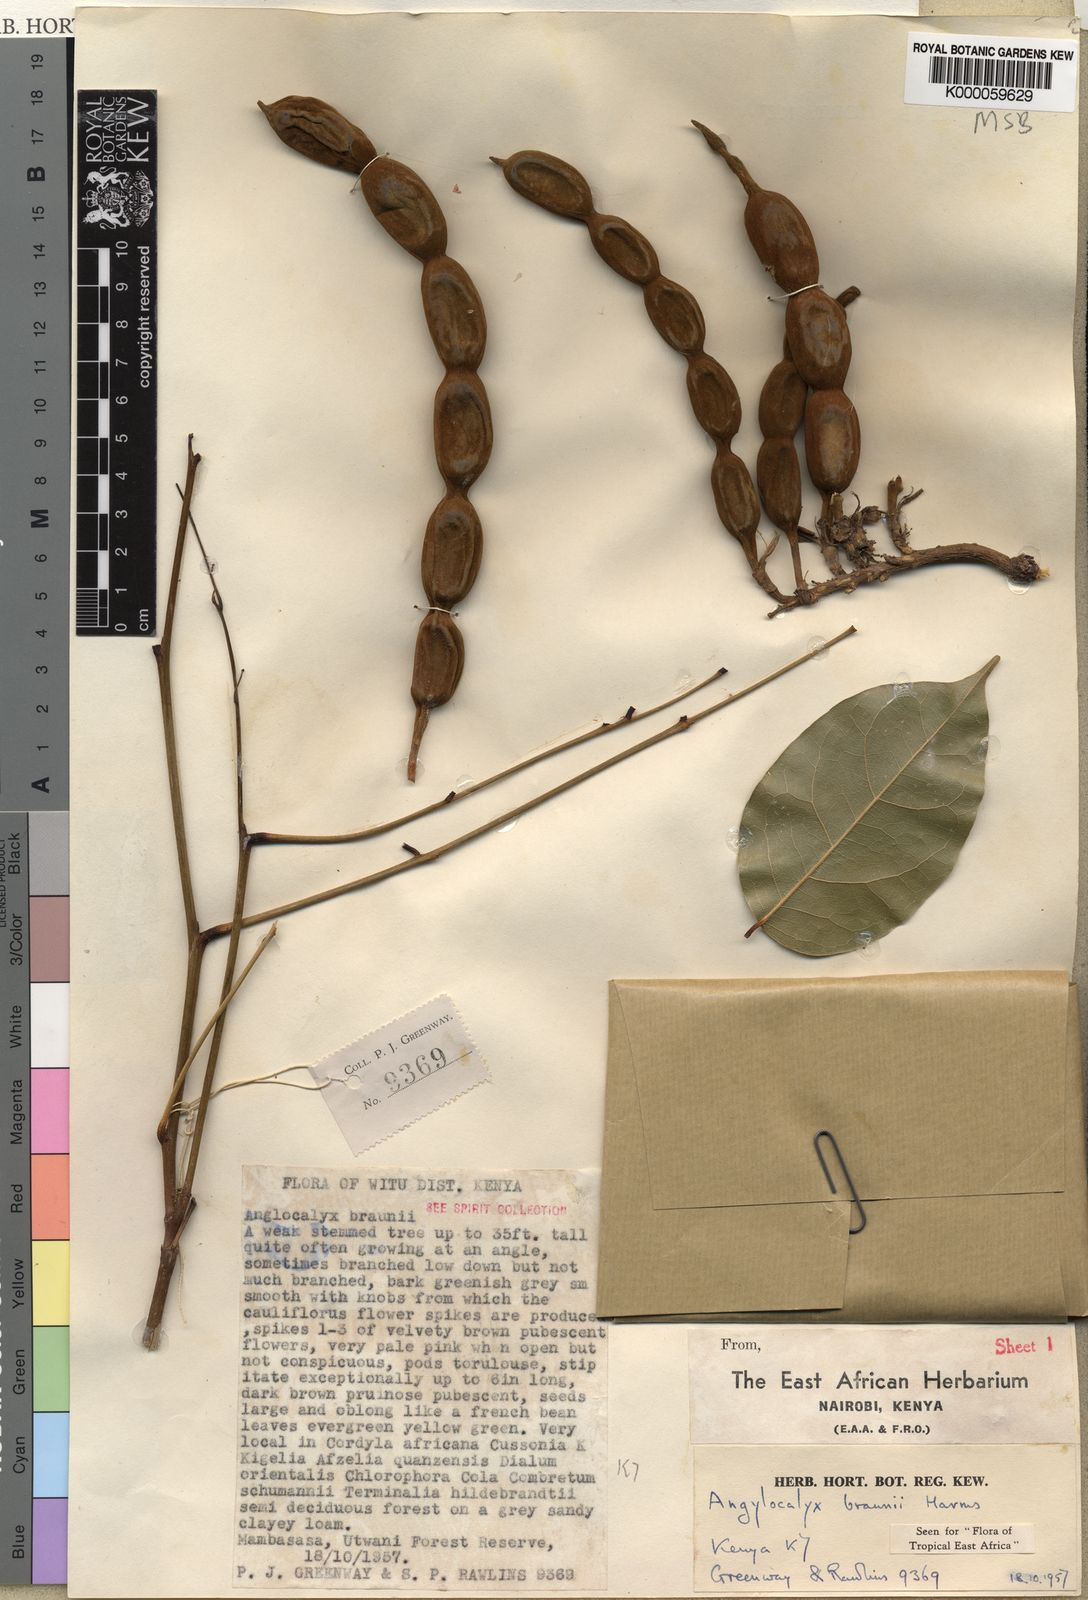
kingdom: Plantae
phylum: Tracheophyta
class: Magnoliopsida
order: Fabales
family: Fabaceae
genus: Angylocalyx
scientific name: Angylocalyx braunii
